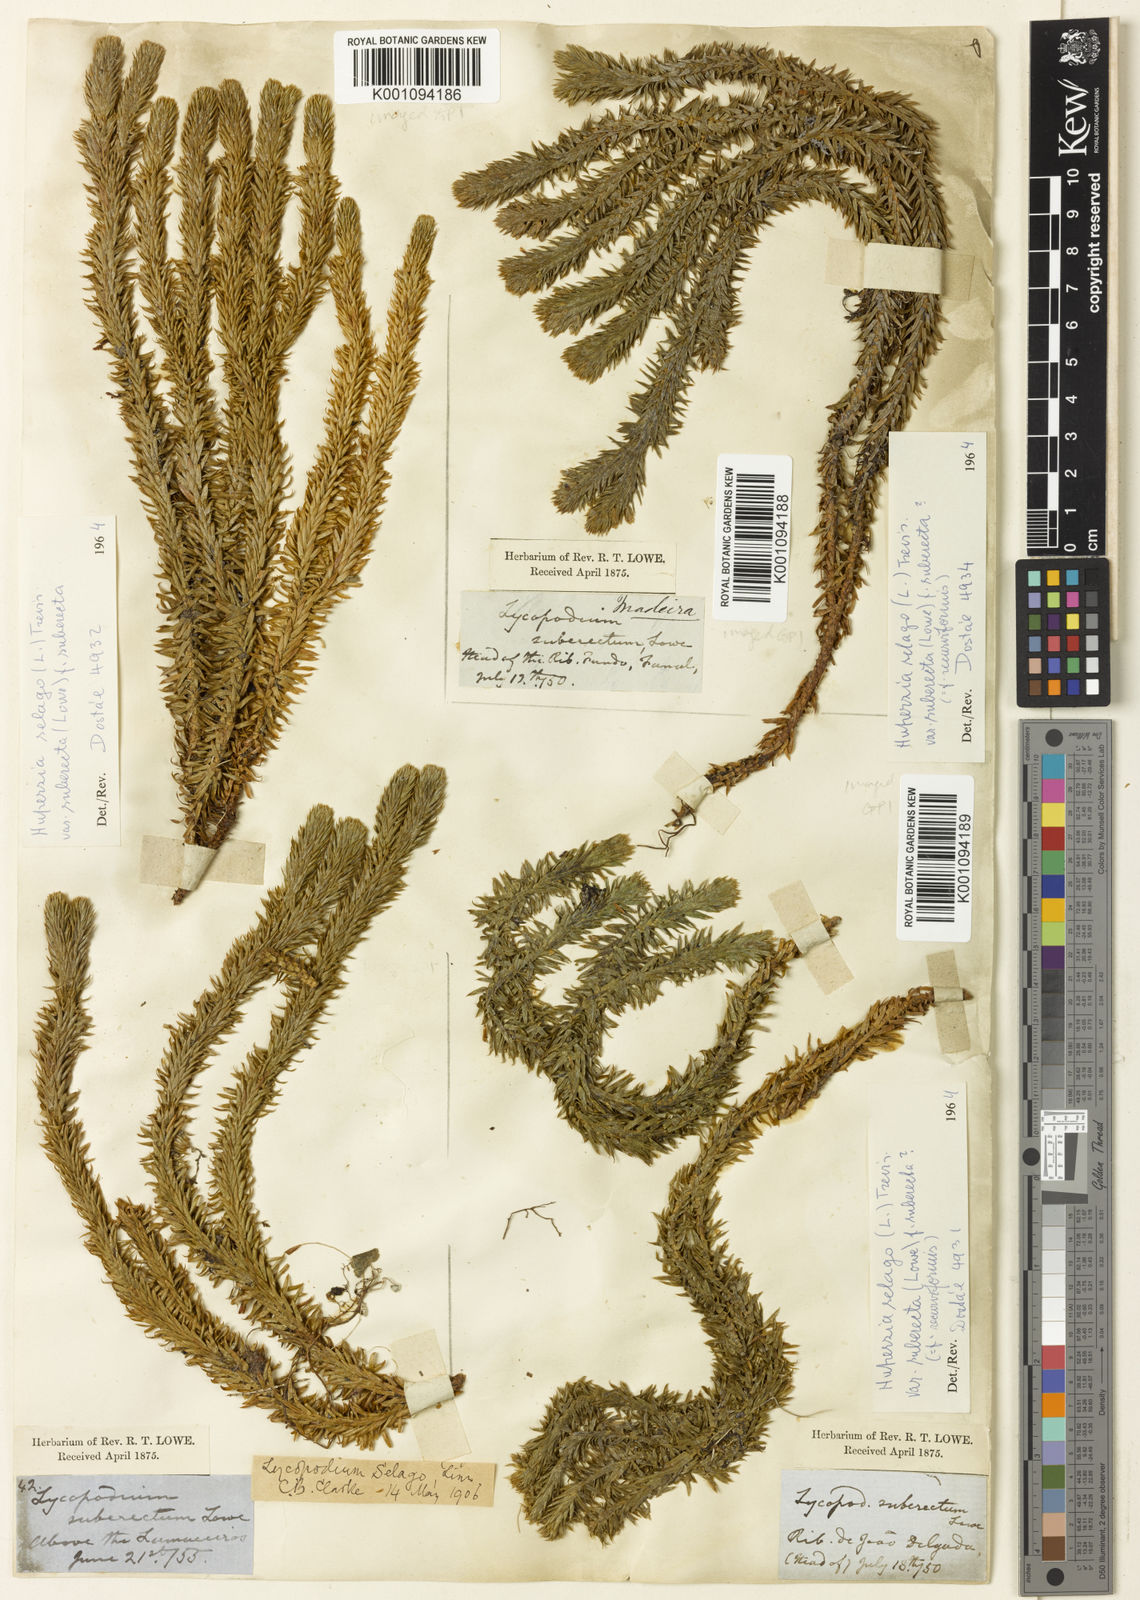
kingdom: Plantae
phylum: Tracheophyta
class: Lycopodiopsida
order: Lycopodiales
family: Lycopodiaceae
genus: Lycopodium
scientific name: Lycopodium
